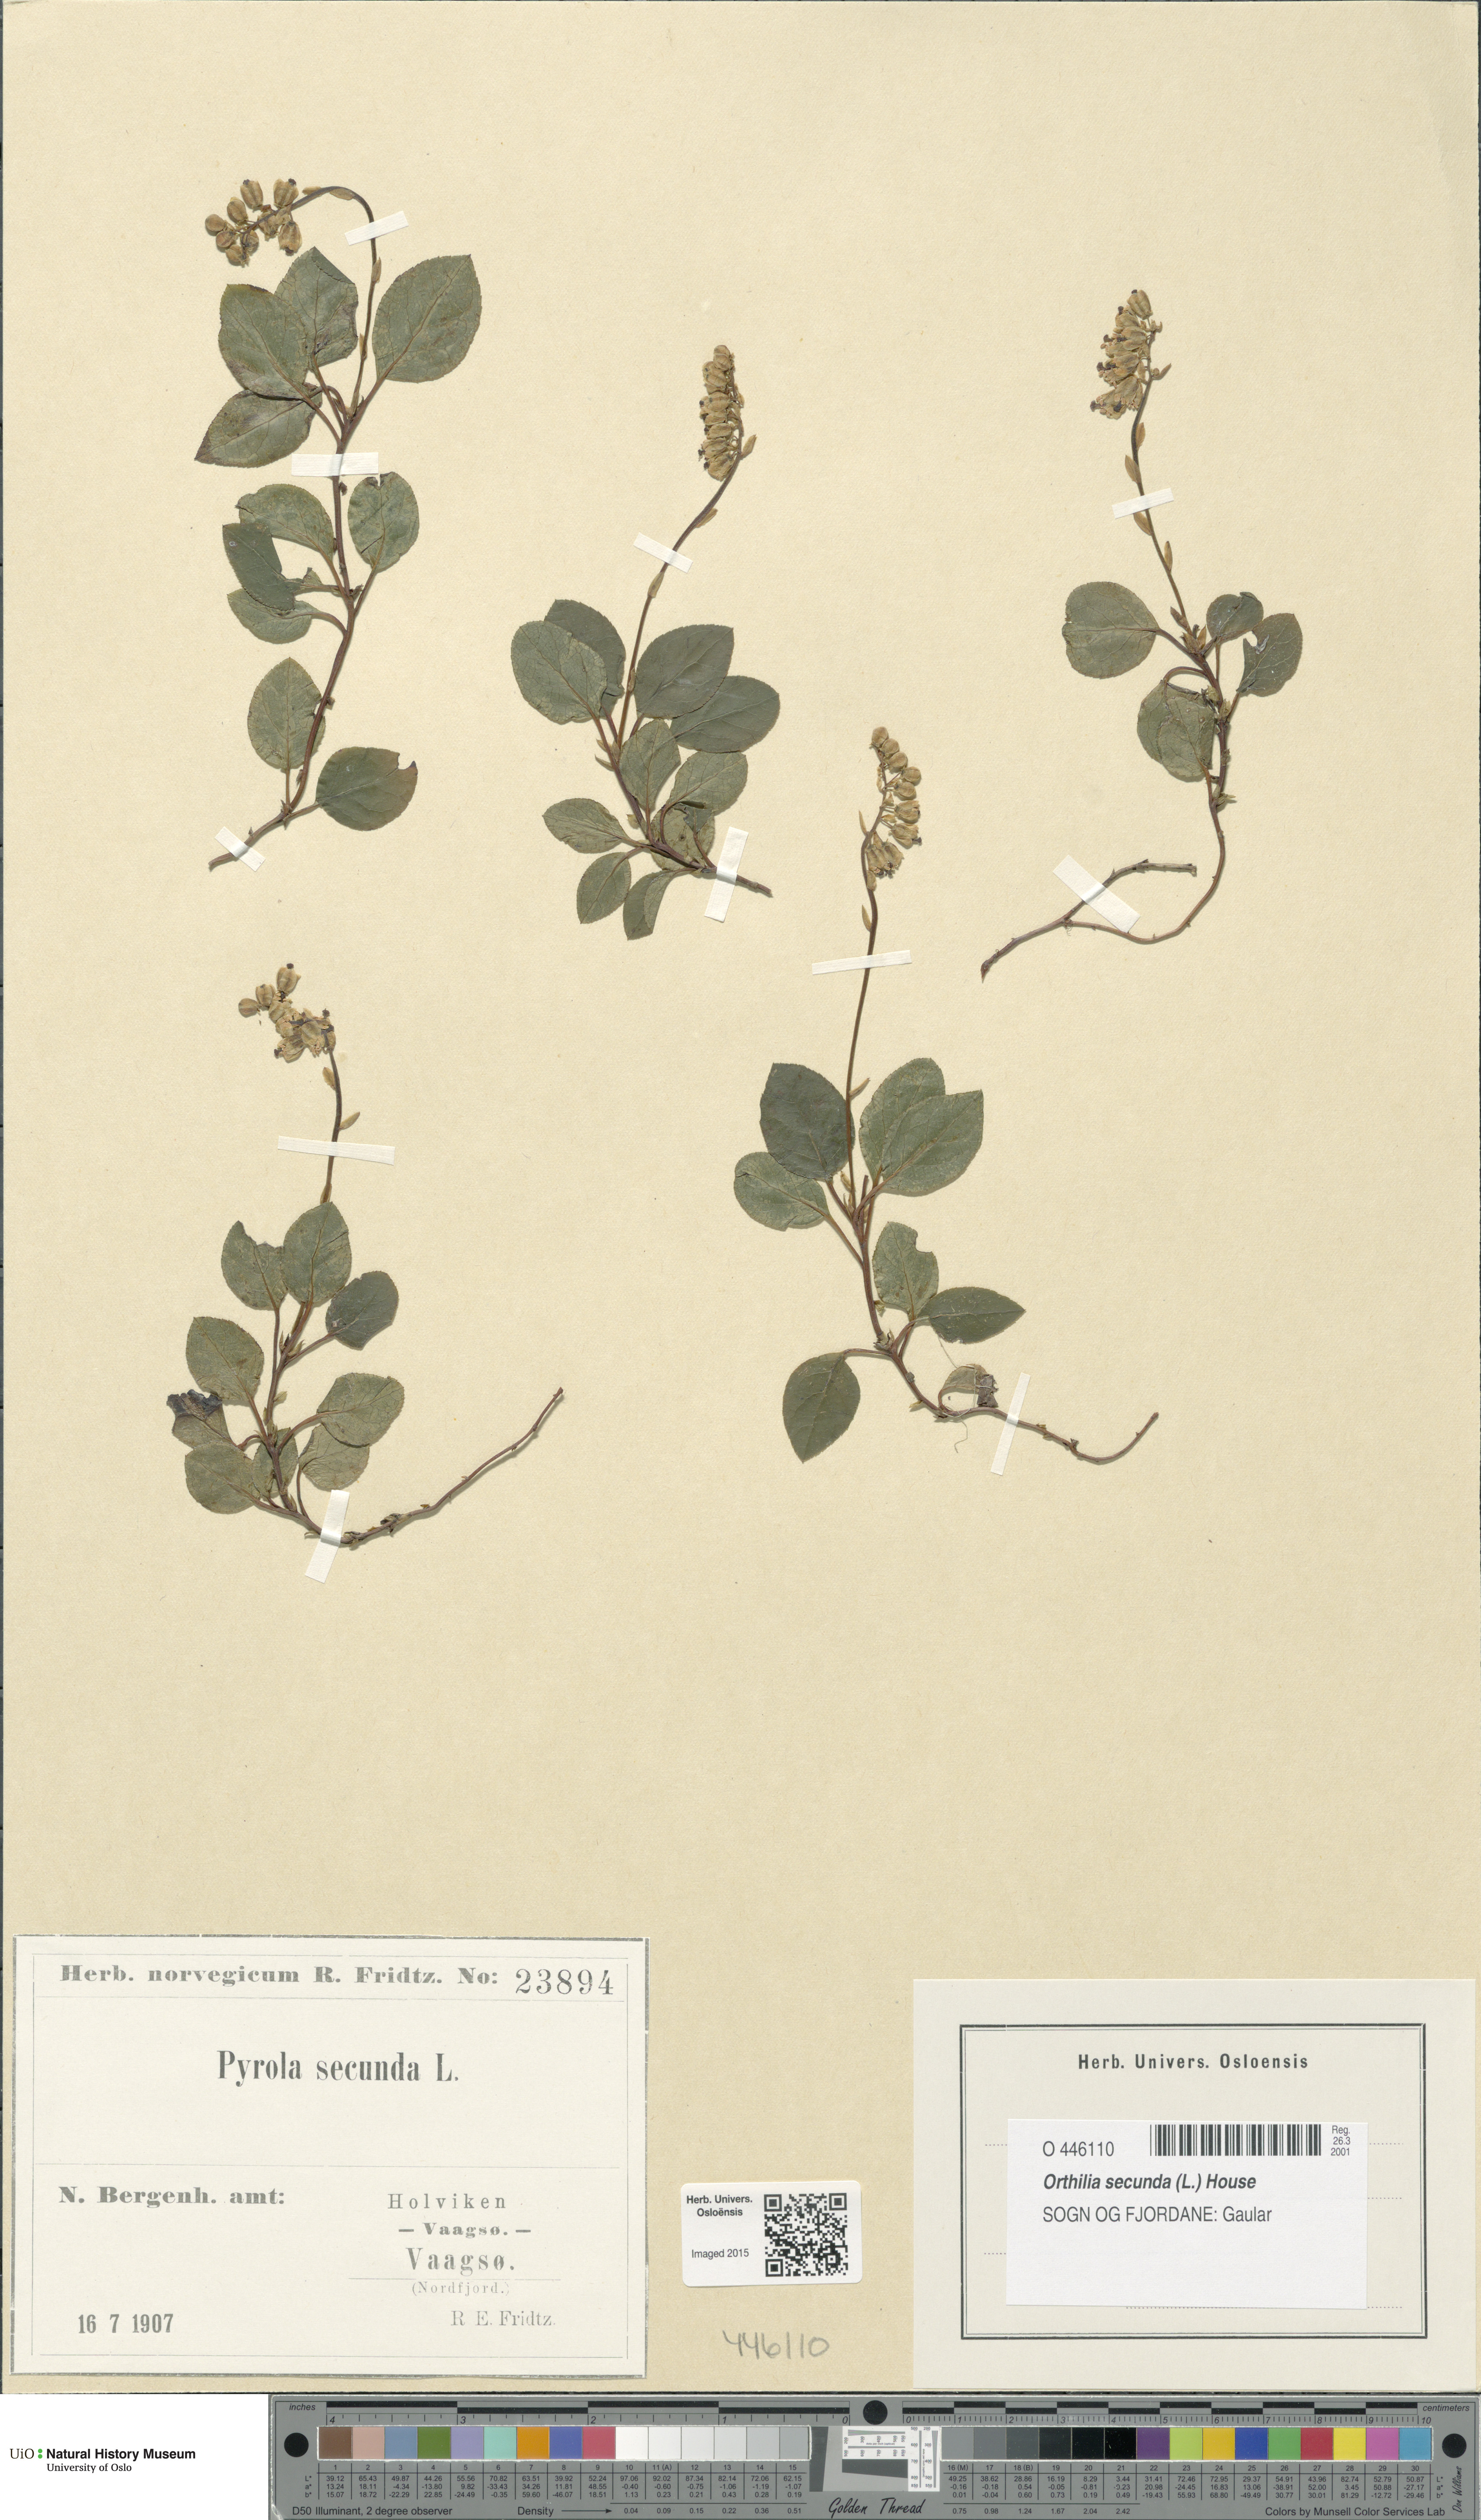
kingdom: Plantae
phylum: Tracheophyta
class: Magnoliopsida
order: Ericales
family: Ericaceae
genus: Orthilia
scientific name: Orthilia secunda
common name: One-sided orthilia
